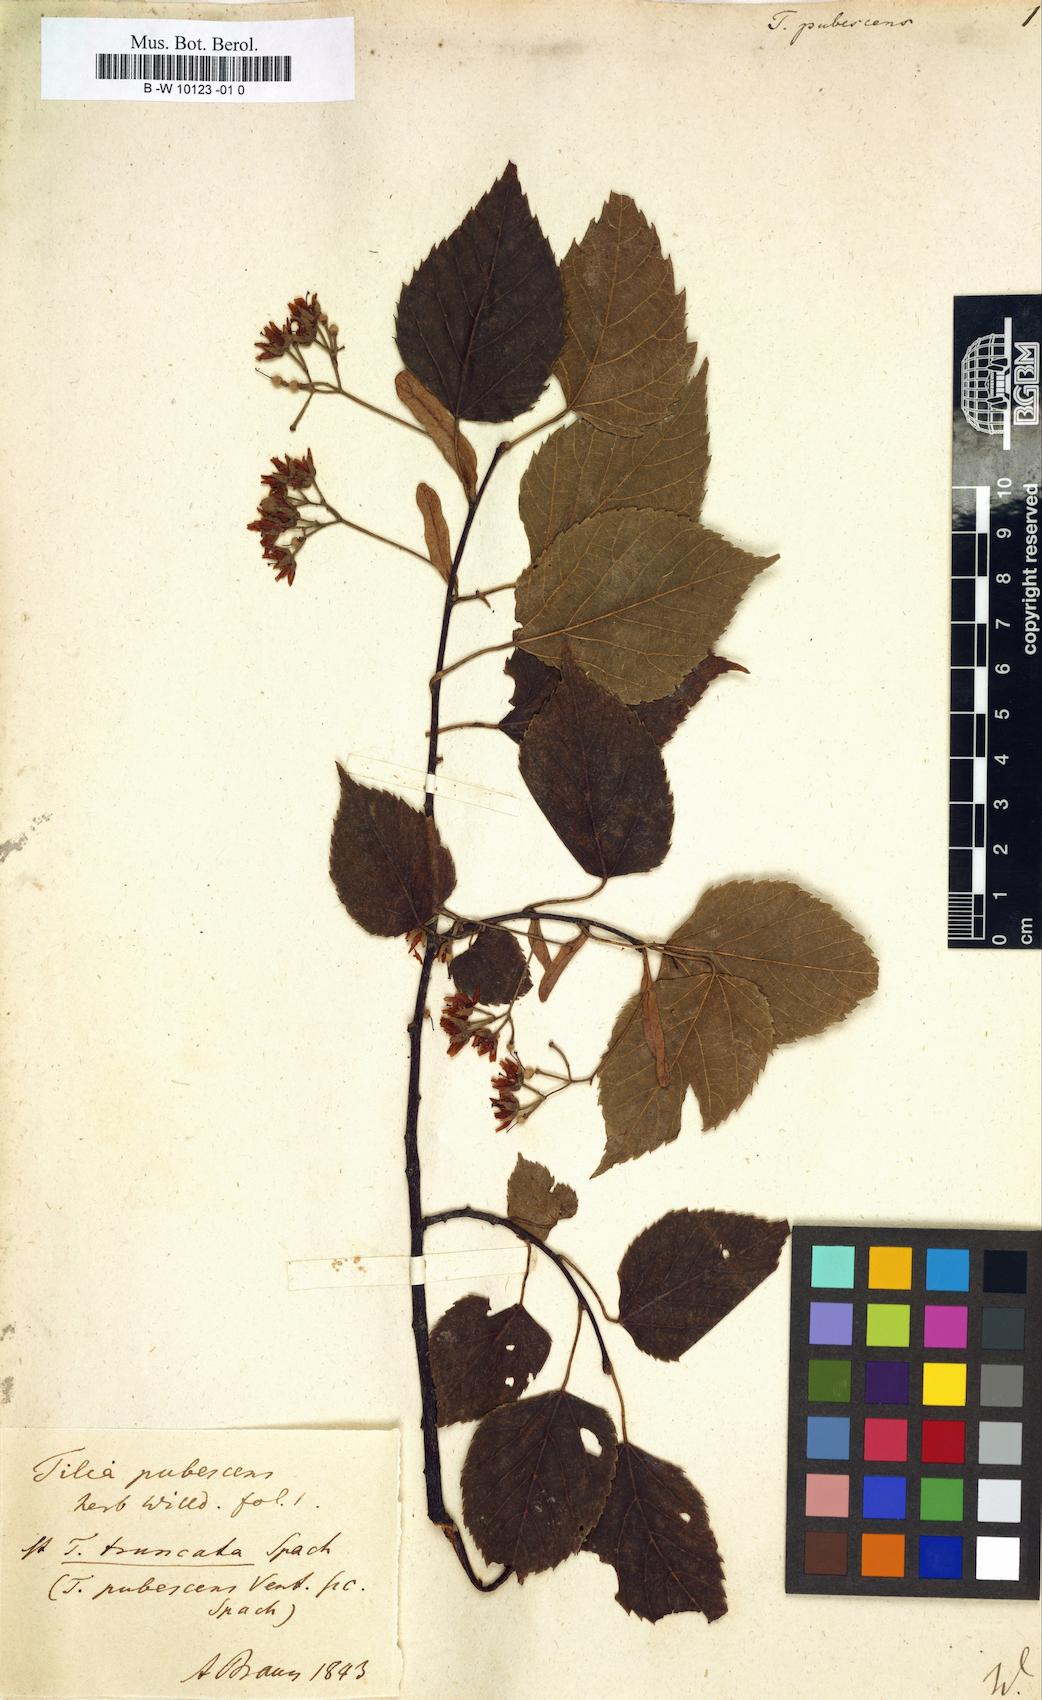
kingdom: Plantae
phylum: Tracheophyta
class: Magnoliopsida
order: Malvales
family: Malvaceae
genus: Tilia
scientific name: Tilia
